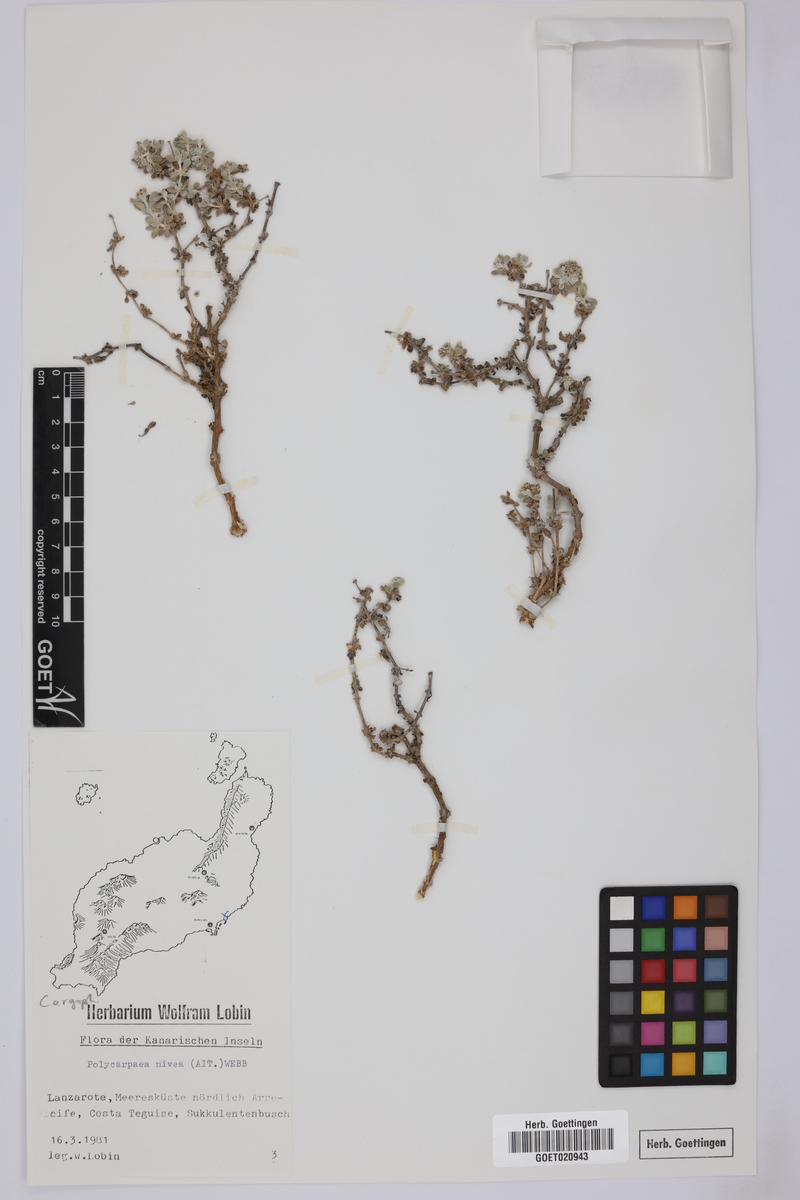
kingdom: Plantae
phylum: Tracheophyta
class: Magnoliopsida
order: Caryophyllales
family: Caryophyllaceae
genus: Polycarpaea
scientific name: Polycarpaea nivea
